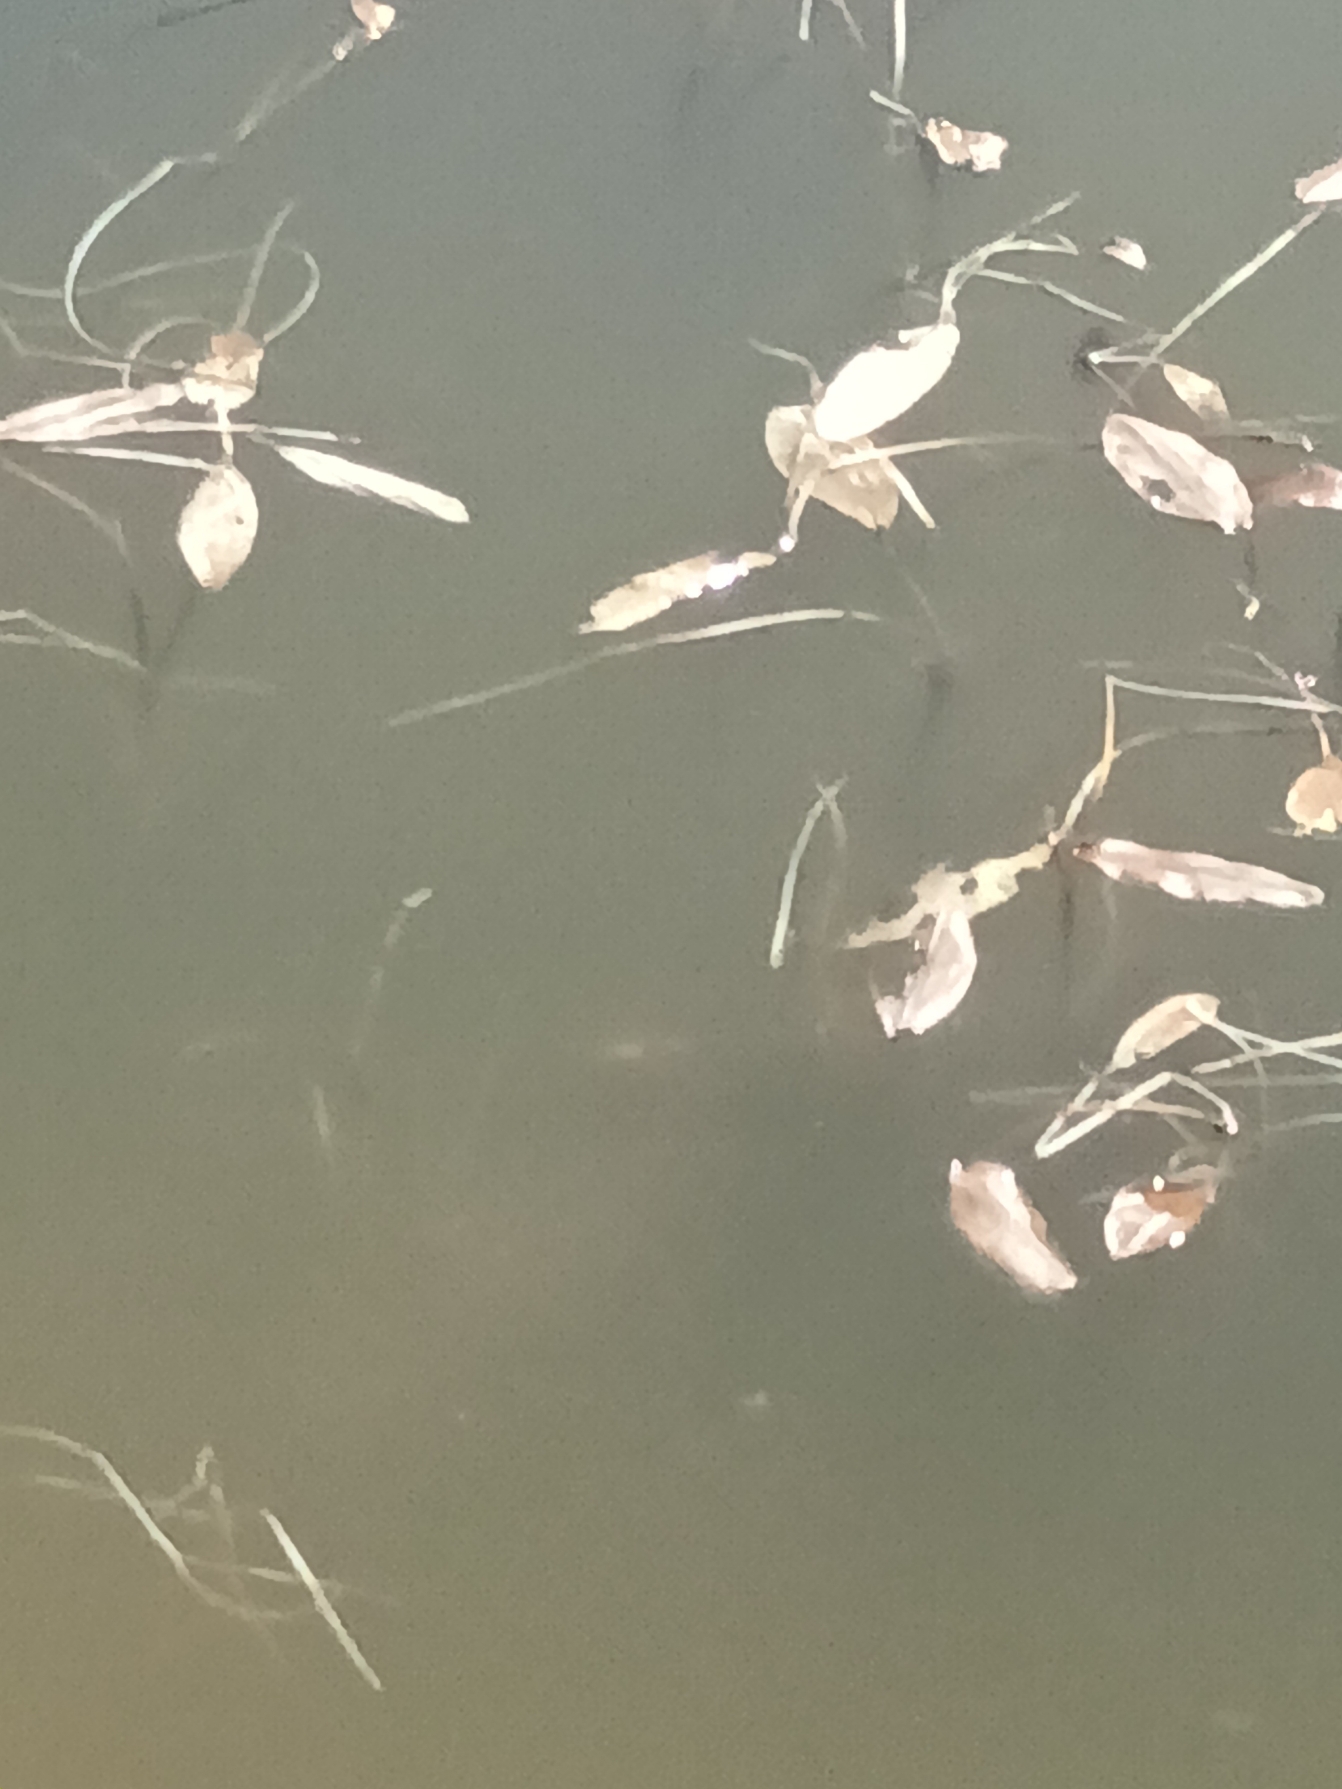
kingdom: Plantae
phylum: Tracheophyta
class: Liliopsida
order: Alismatales
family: Potamogetonaceae
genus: Potamogeton
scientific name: Potamogeton natans
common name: Svømmende vandaks
